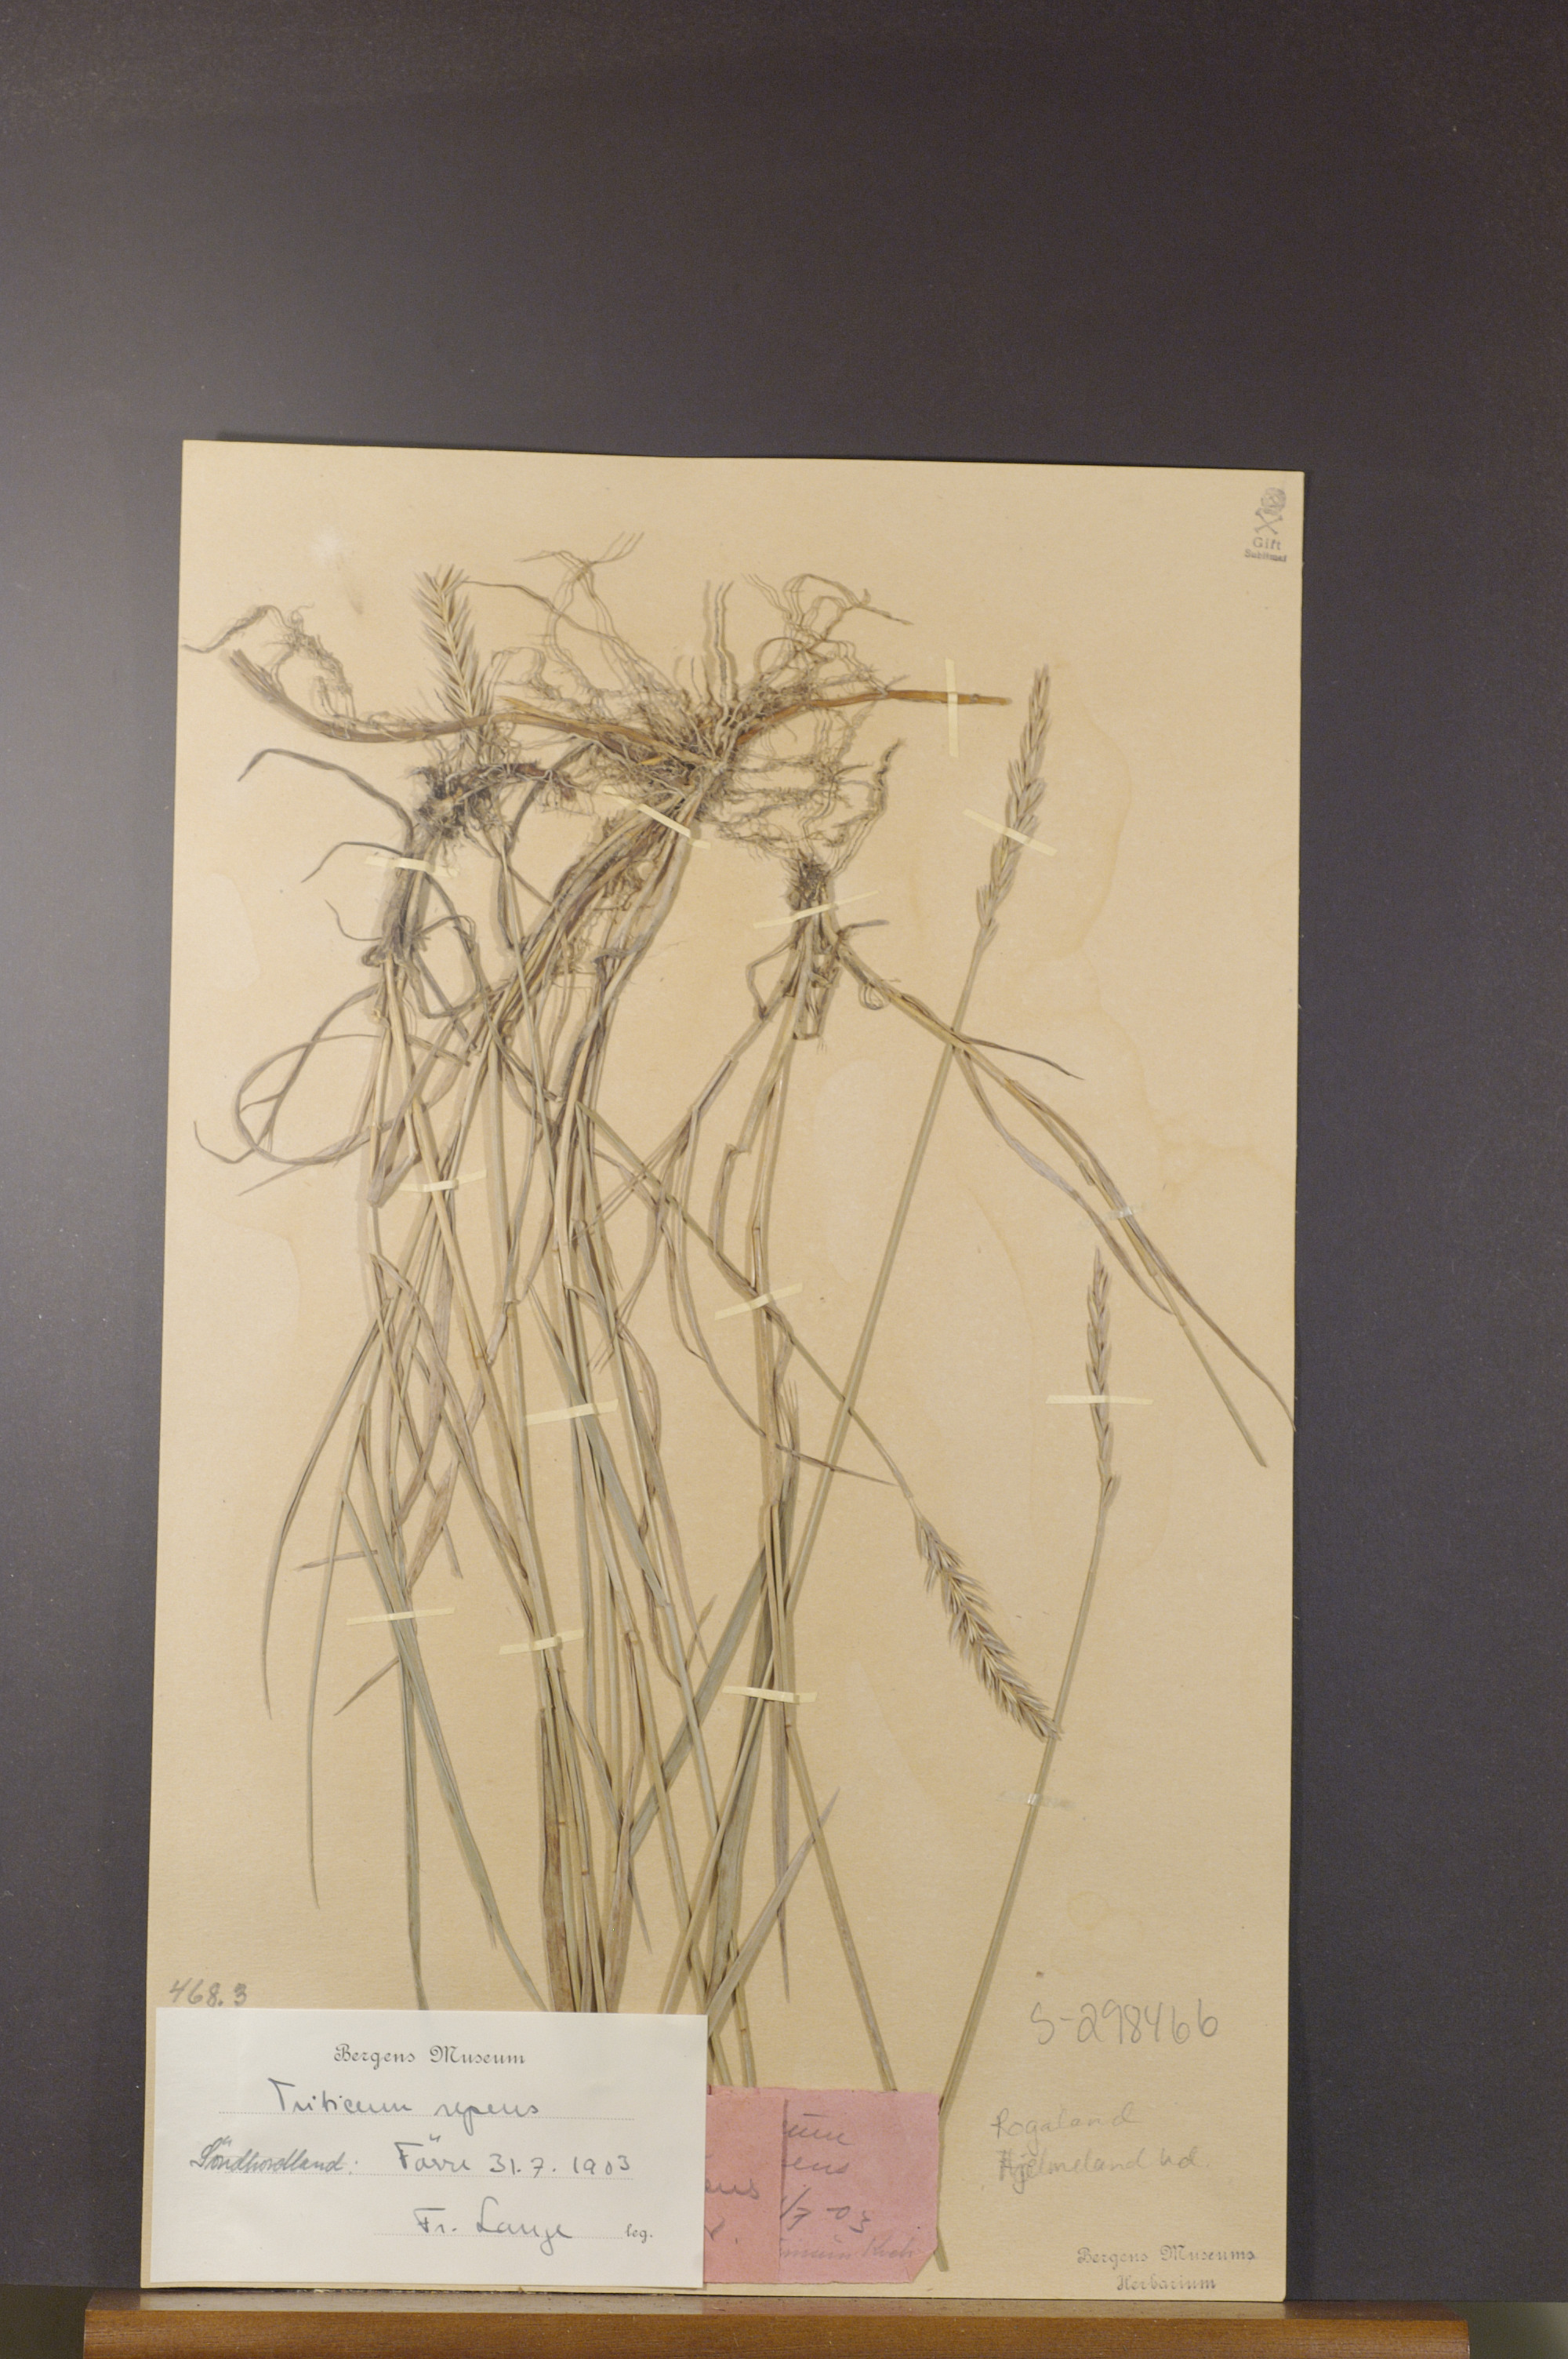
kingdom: Plantae
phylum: Tracheophyta
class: Liliopsida
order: Poales
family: Poaceae
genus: Elymus
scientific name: Elymus repens
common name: Quackgrass
